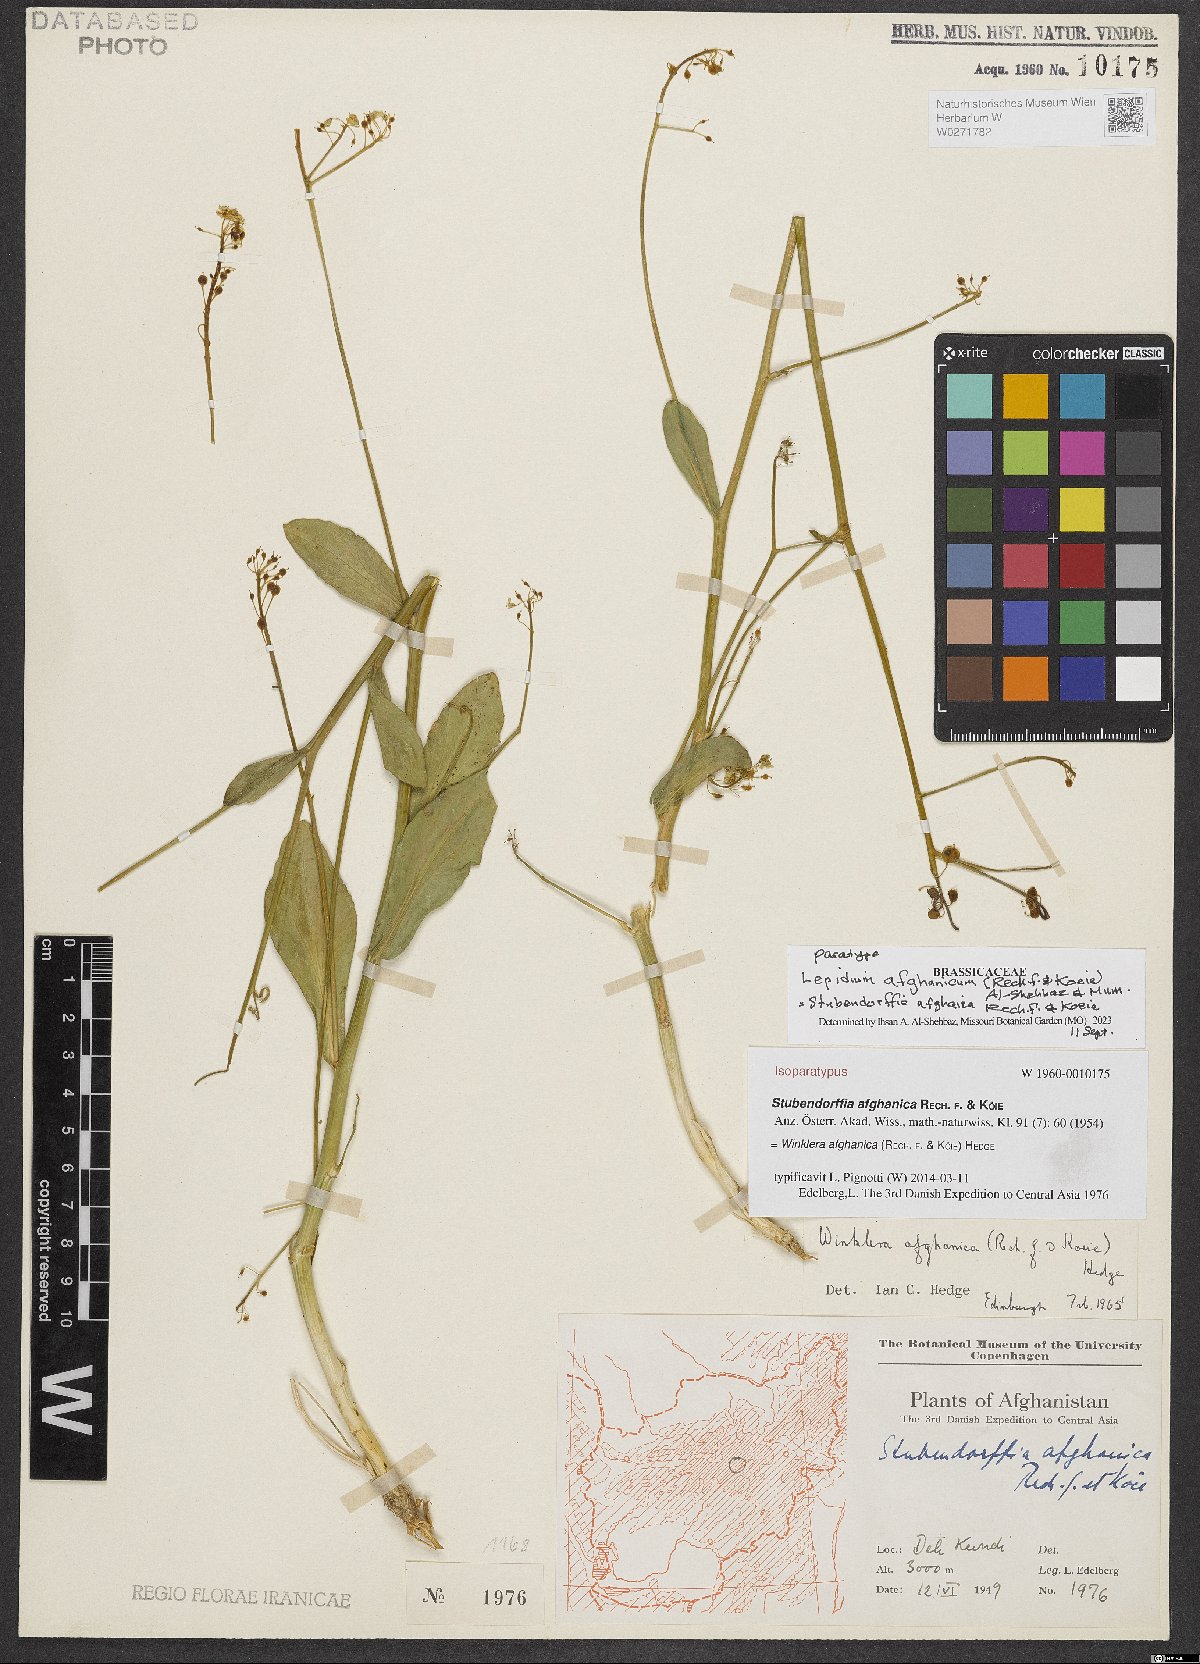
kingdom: Plantae
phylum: Tracheophyta
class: Magnoliopsida
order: Brassicales
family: Brassicaceae
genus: Lepidium
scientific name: Lepidium afghanicum
